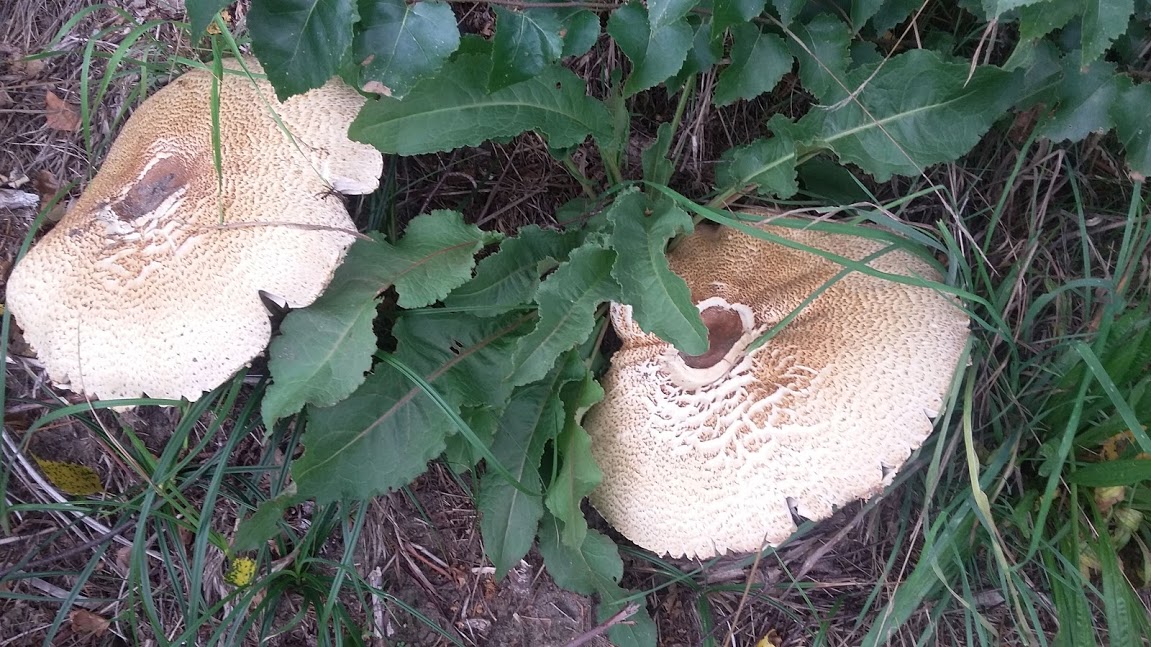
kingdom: Fungi
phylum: Basidiomycota
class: Agaricomycetes
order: Agaricales
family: Agaricaceae
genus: Agaricus
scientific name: Agaricus augustus
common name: prægtig champignon
